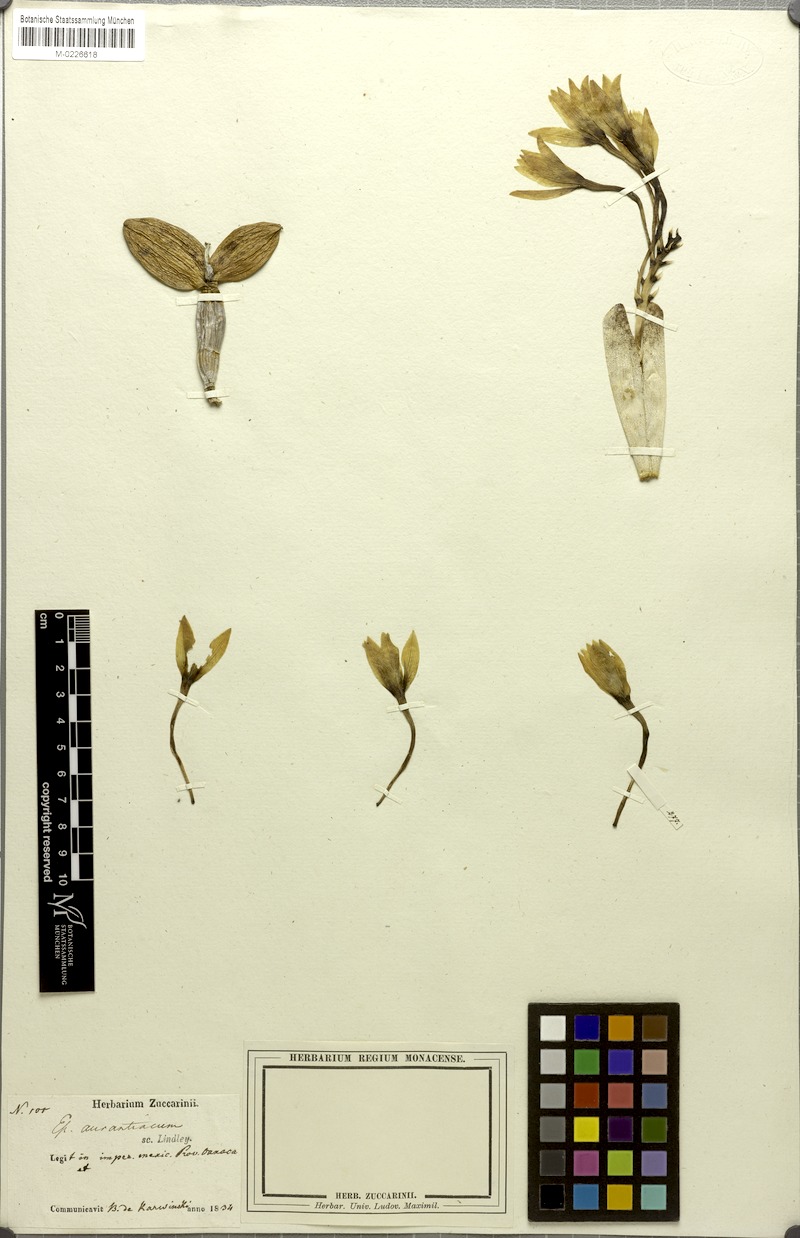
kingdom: Plantae
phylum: Tracheophyta
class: Liliopsida
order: Asparagales
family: Orchidaceae
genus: Guarianthe
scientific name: Guarianthe aurantiaca
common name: Orange cattleya
